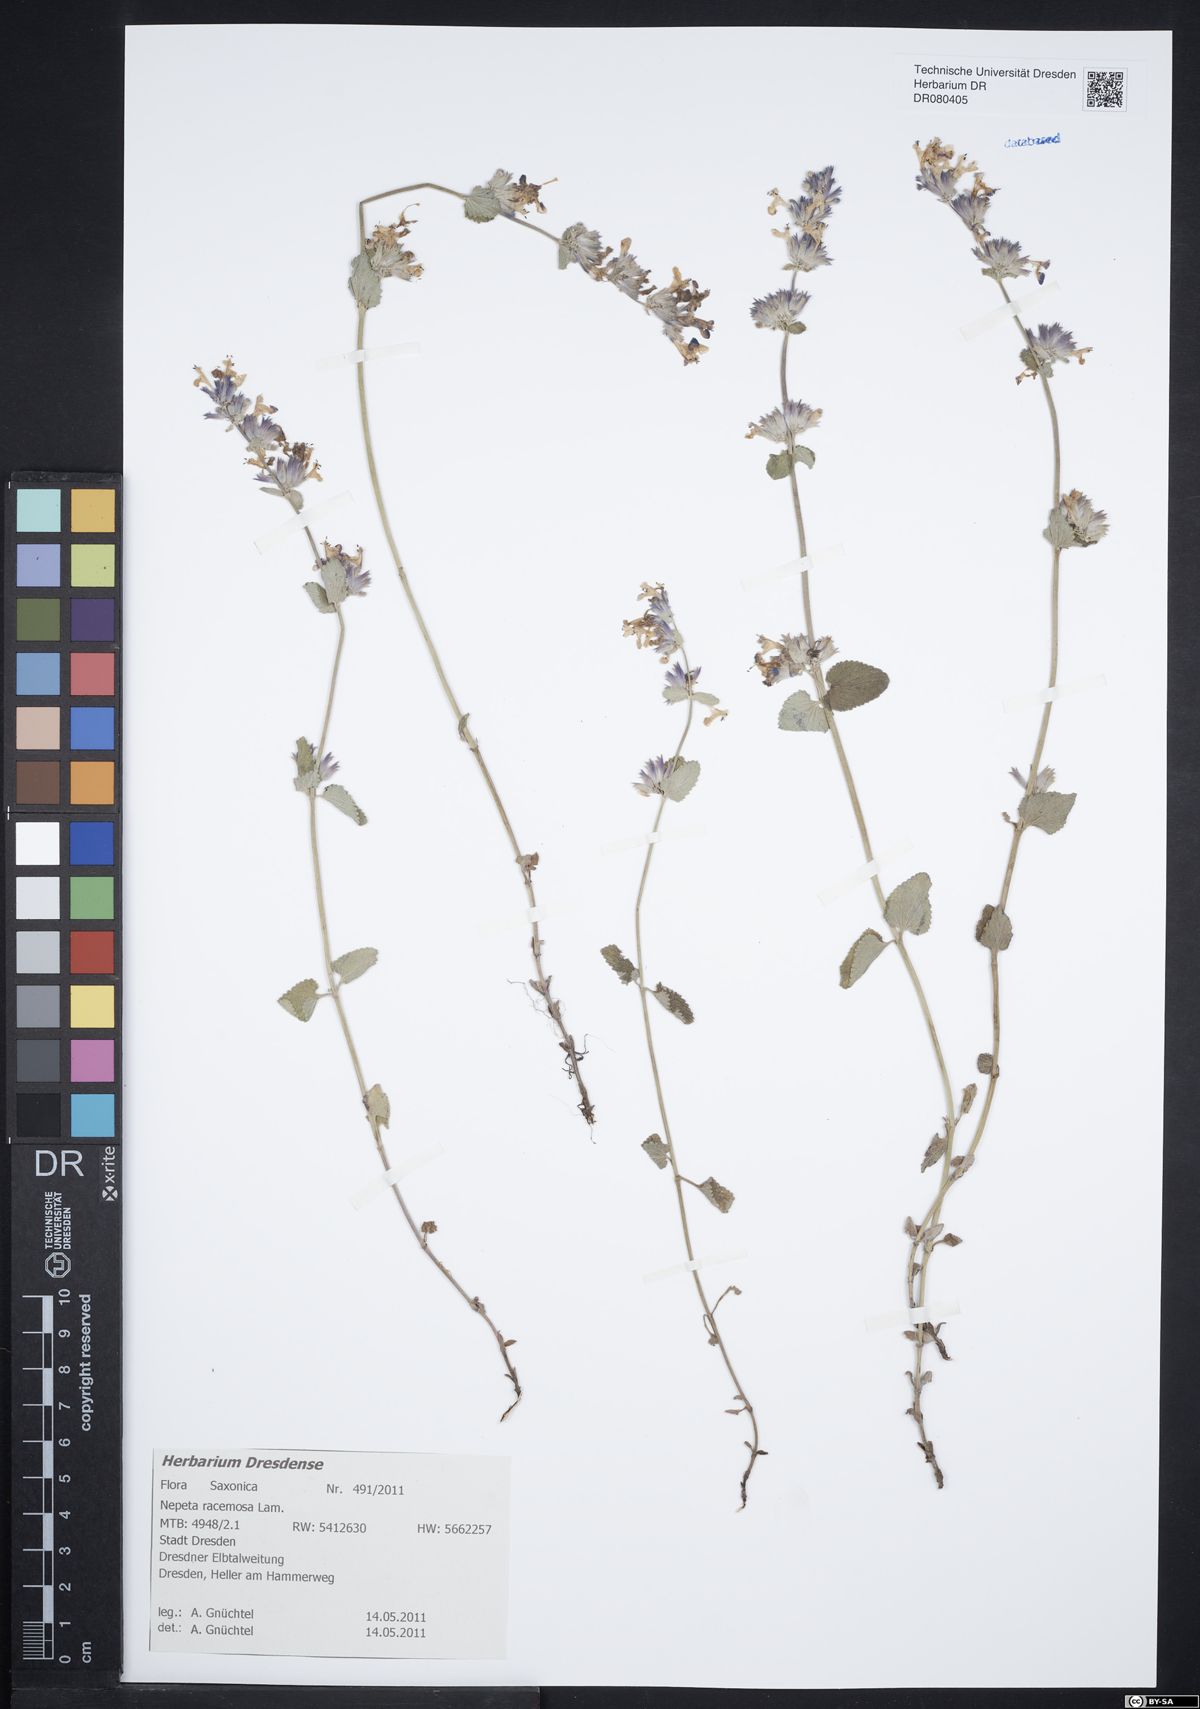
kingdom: Plantae
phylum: Tracheophyta
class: Magnoliopsida
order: Lamiales
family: Lamiaceae
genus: Nepeta
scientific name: Nepeta racemosa
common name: Raceme catnip
